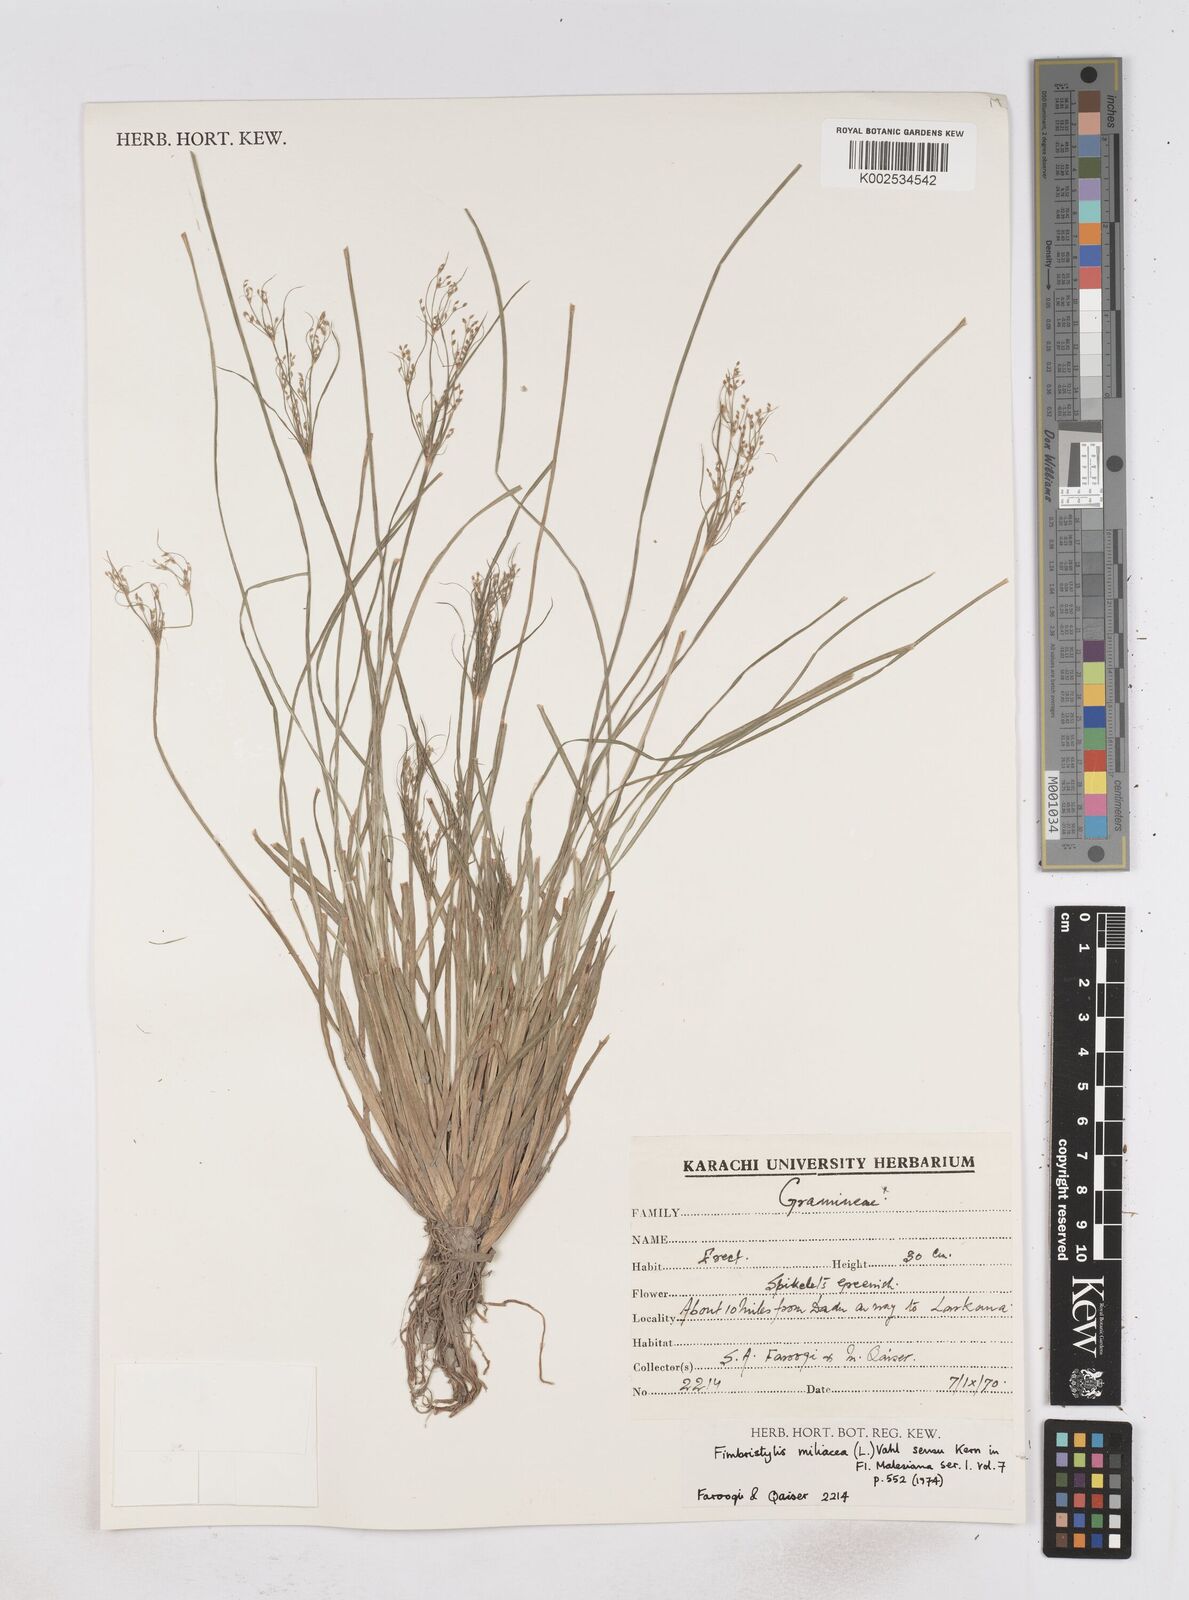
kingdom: Plantae
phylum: Tracheophyta
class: Liliopsida
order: Poales
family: Cyperaceae
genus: Fimbristylis
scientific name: Fimbristylis quinquangularis
